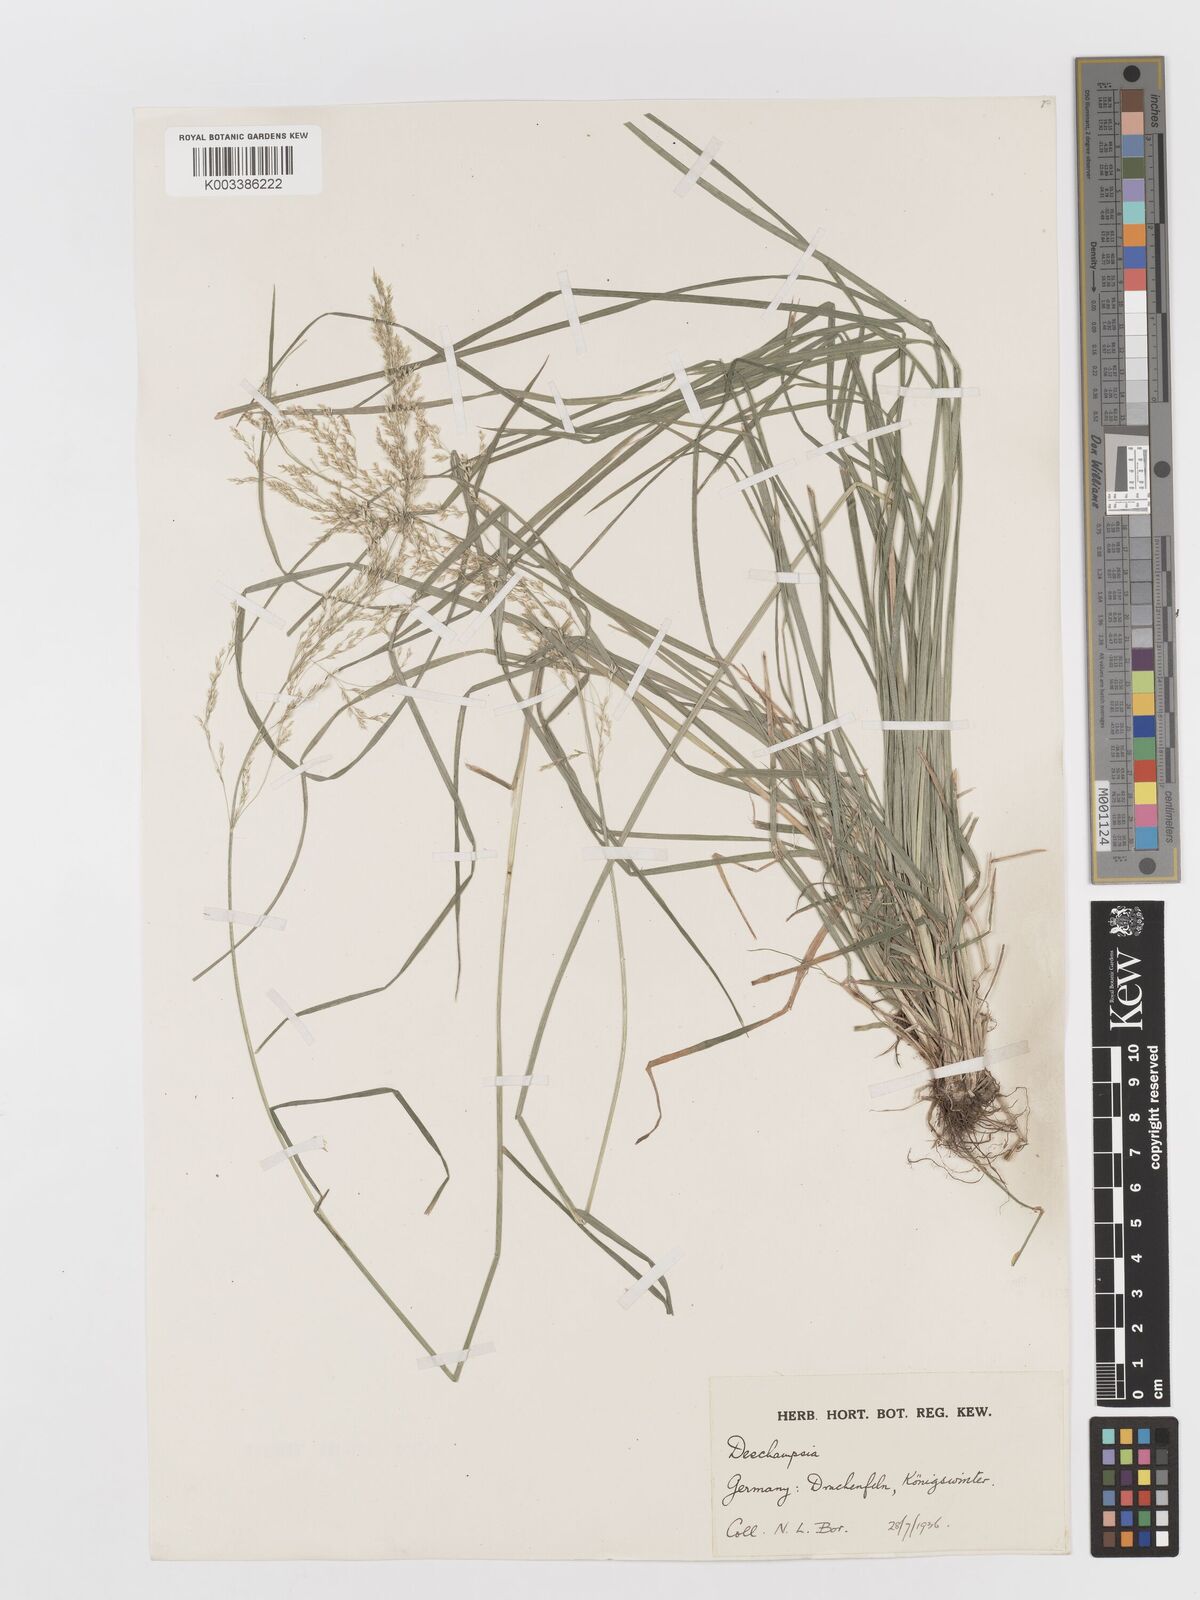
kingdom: Plantae
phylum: Tracheophyta
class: Liliopsida
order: Poales
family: Poaceae
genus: Deschampsia
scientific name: Deschampsia
